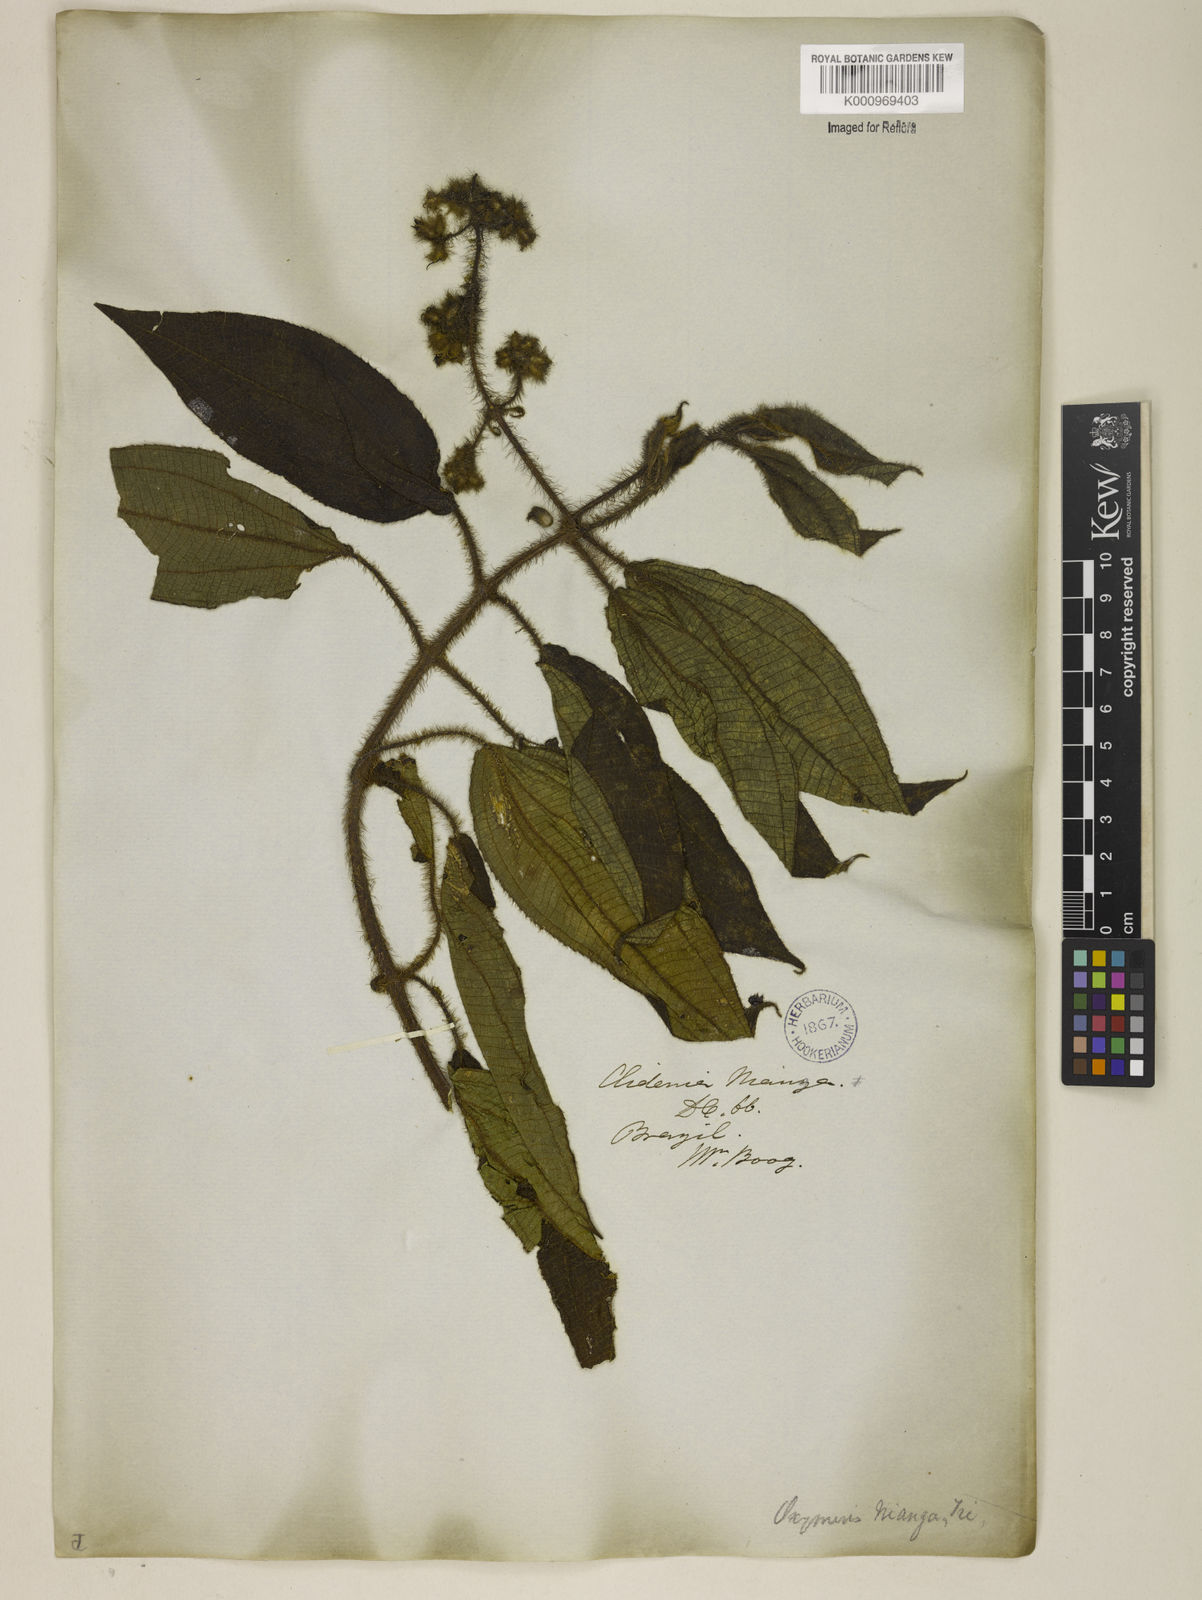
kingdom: Plantae
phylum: Tracheophyta
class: Magnoliopsida
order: Myrtales
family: Melastomataceae
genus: Miconia
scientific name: Miconia nianga
